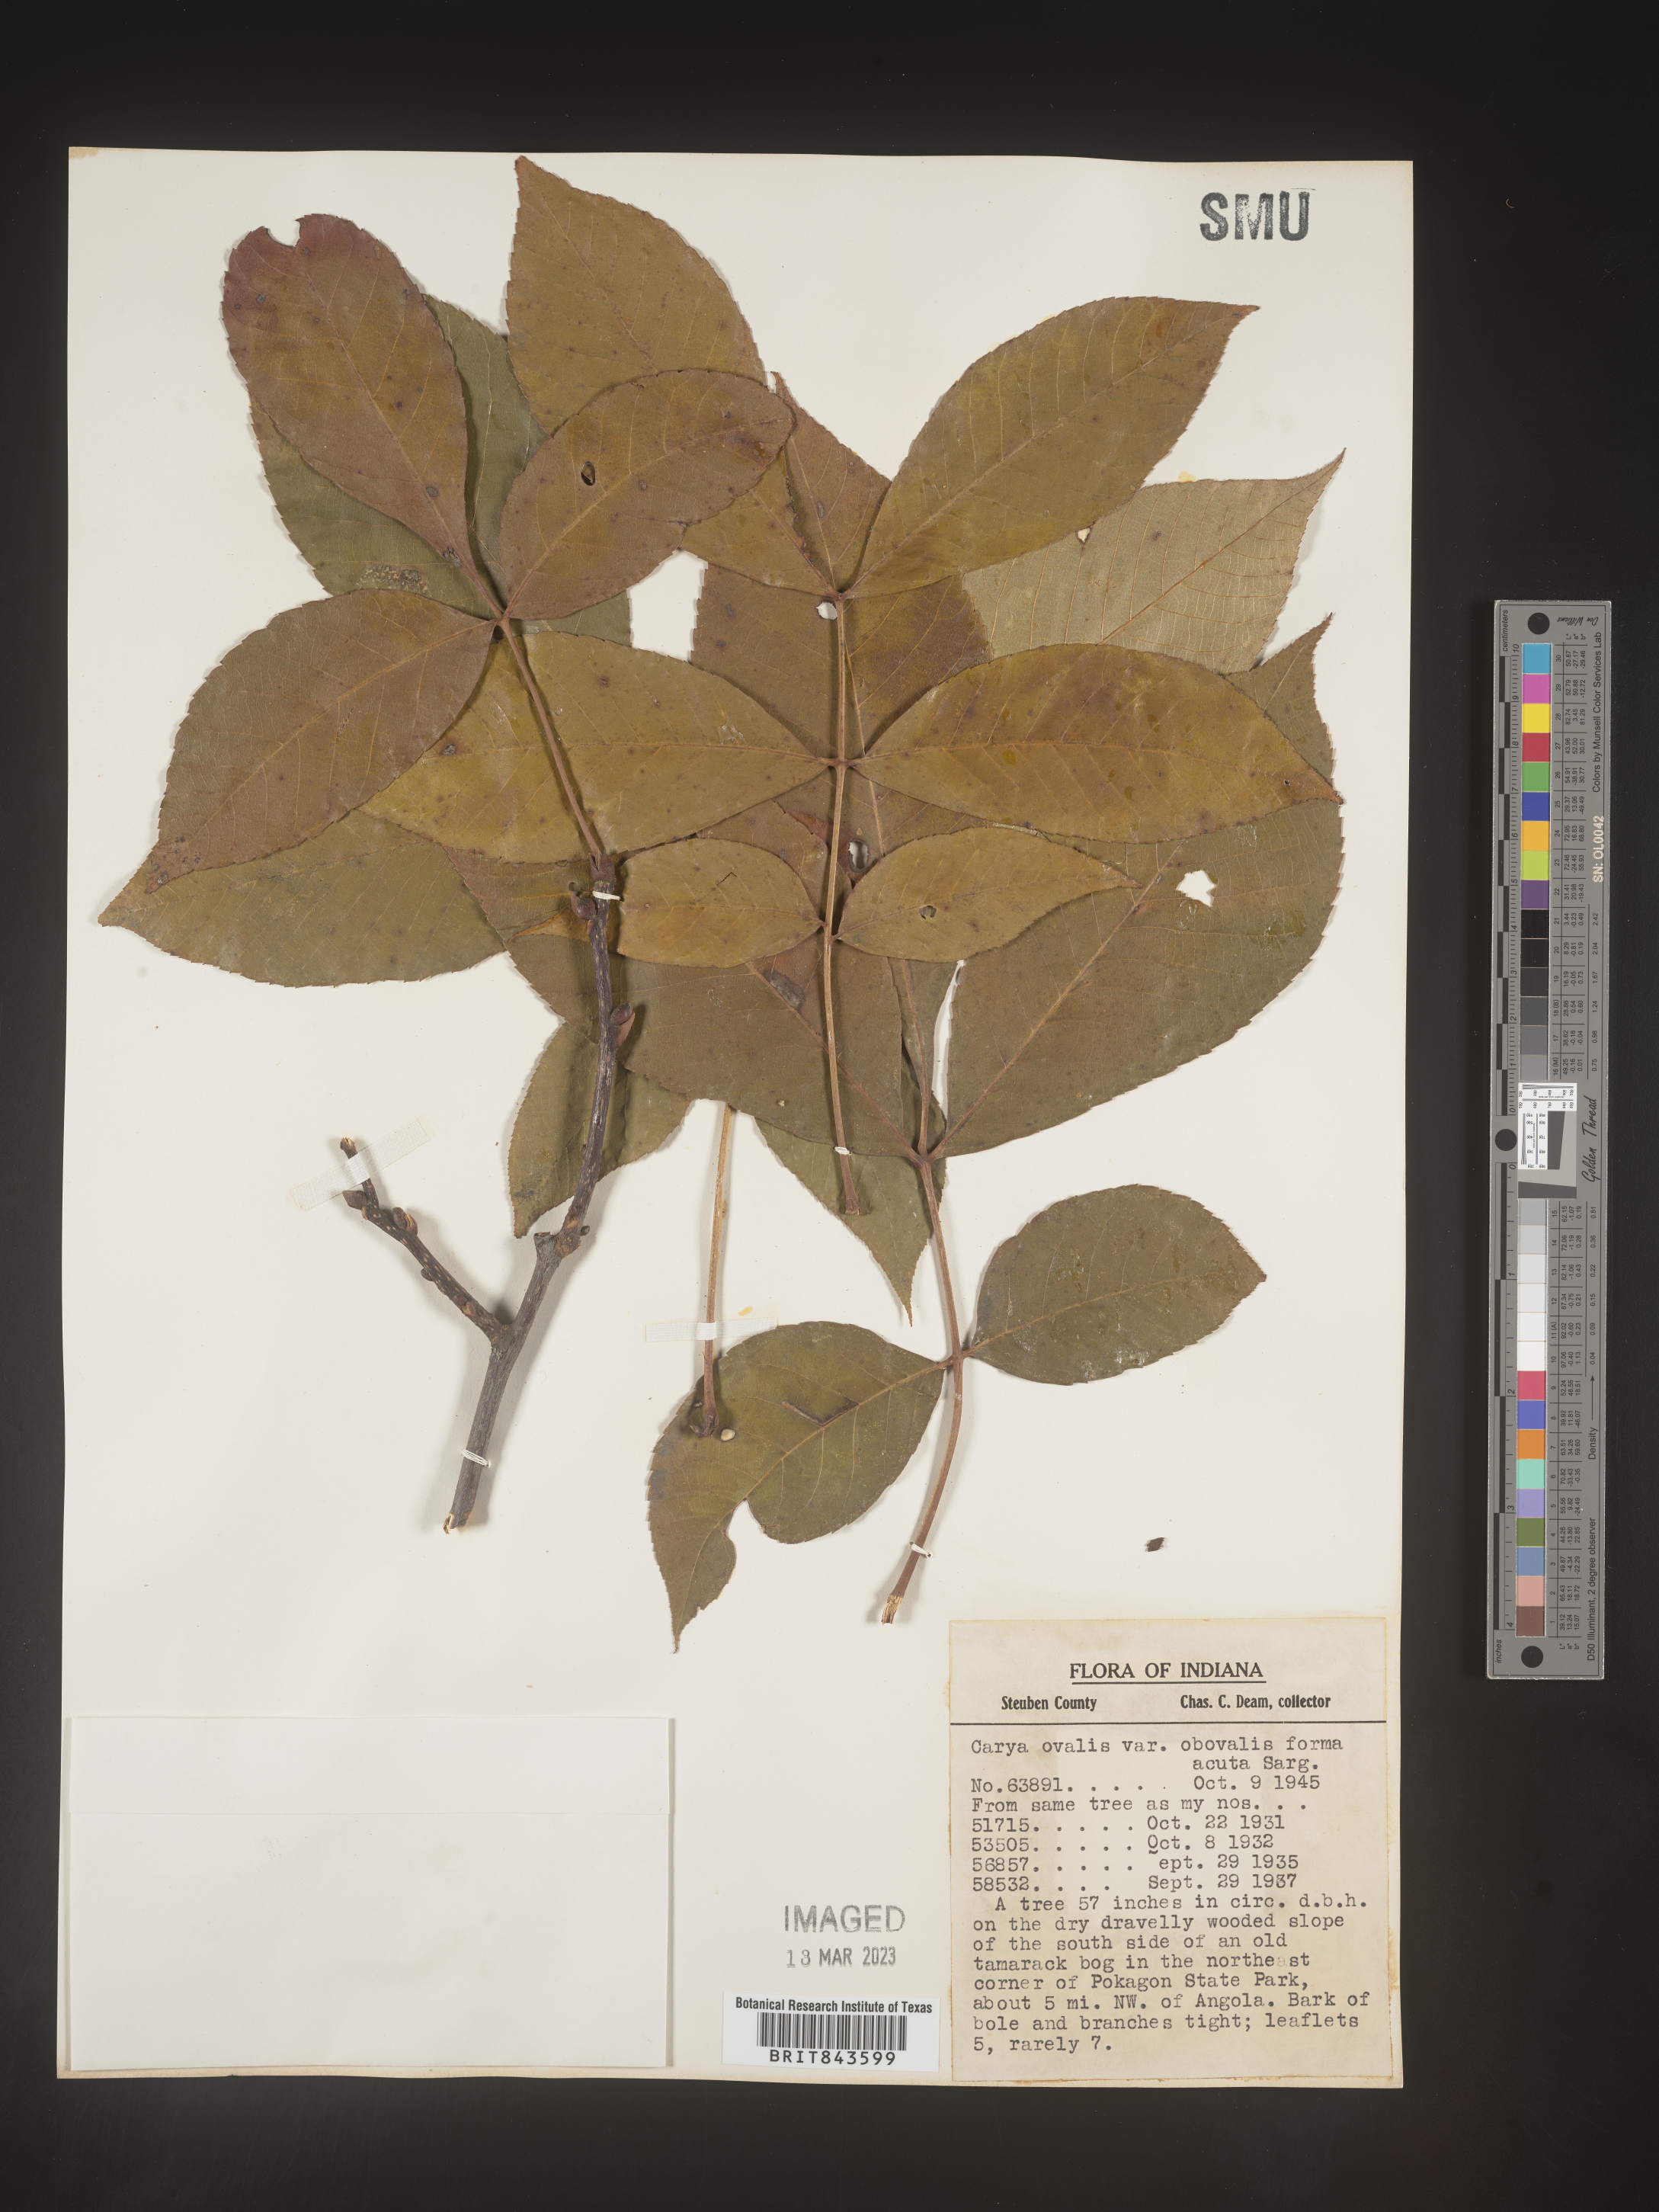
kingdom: Plantae
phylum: Tracheophyta
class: Magnoliopsida
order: Fagales
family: Juglandaceae
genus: Carya
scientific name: Carya ovalis
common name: False shagbark
